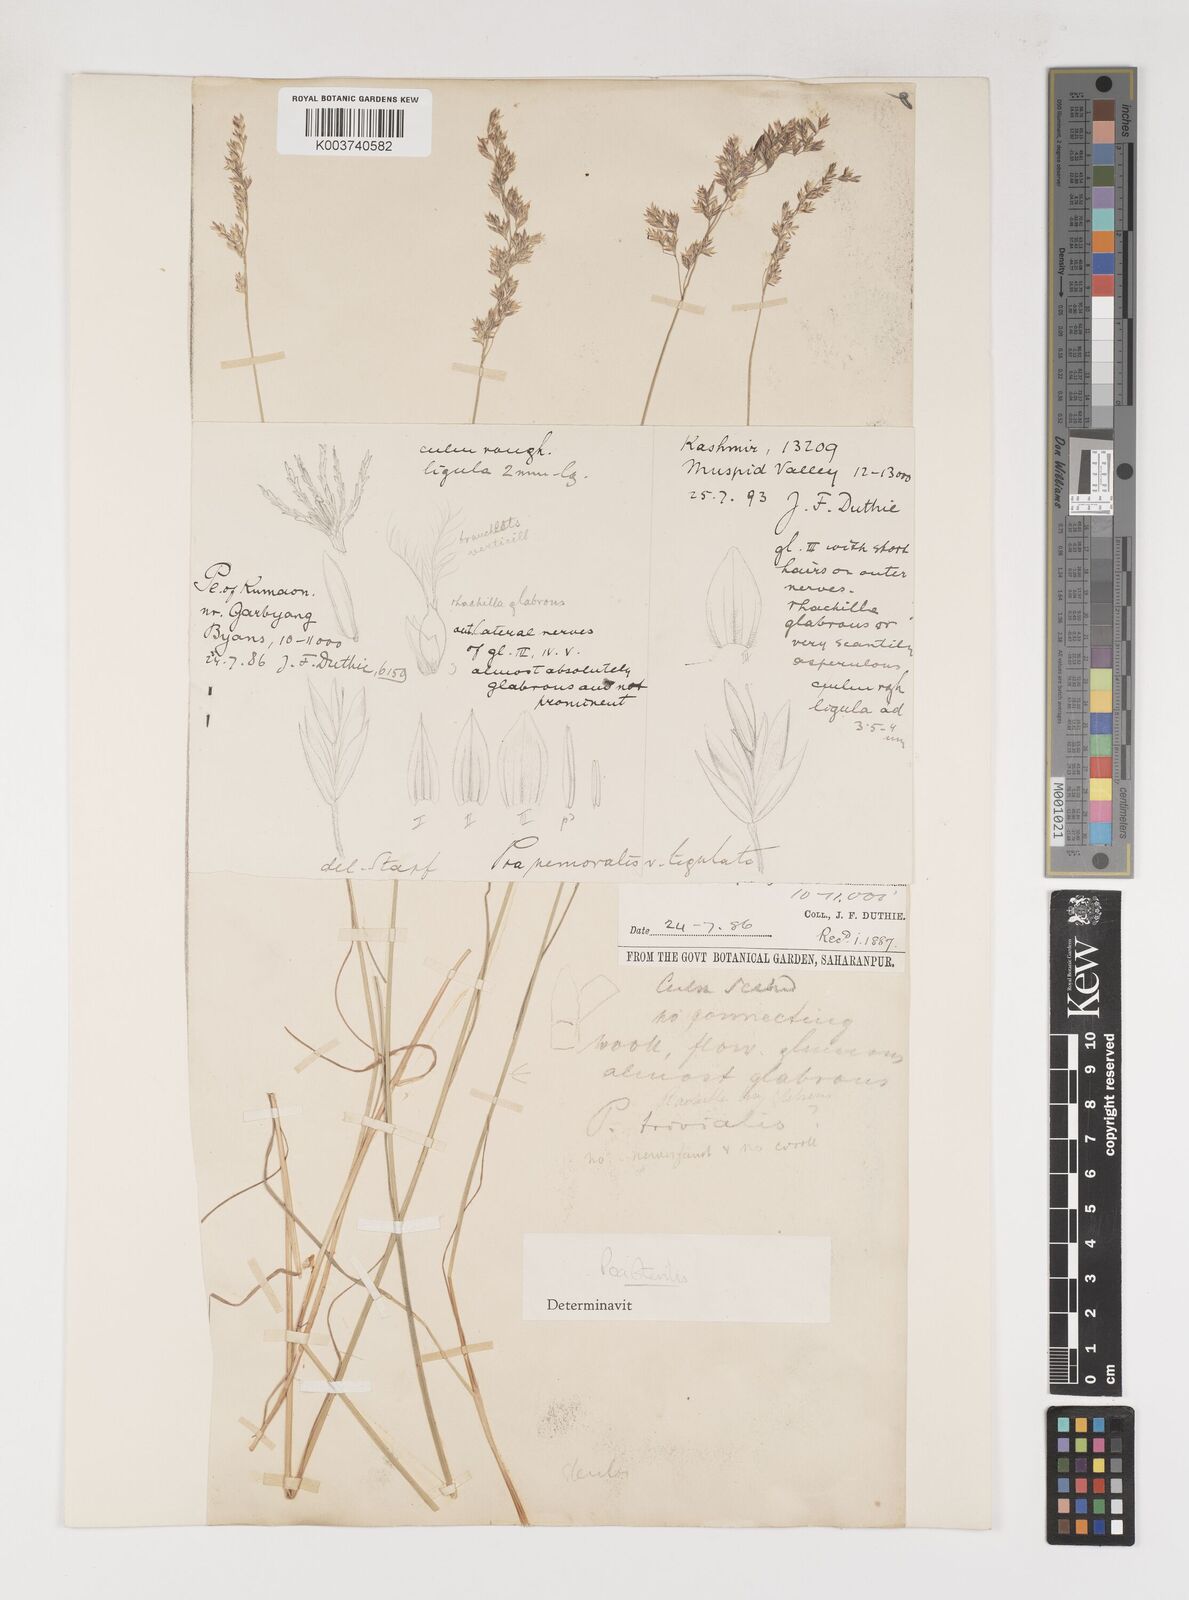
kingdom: Plantae
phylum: Tracheophyta
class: Liliopsida
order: Poales
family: Poaceae
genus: Poa
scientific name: Poa sterilis
